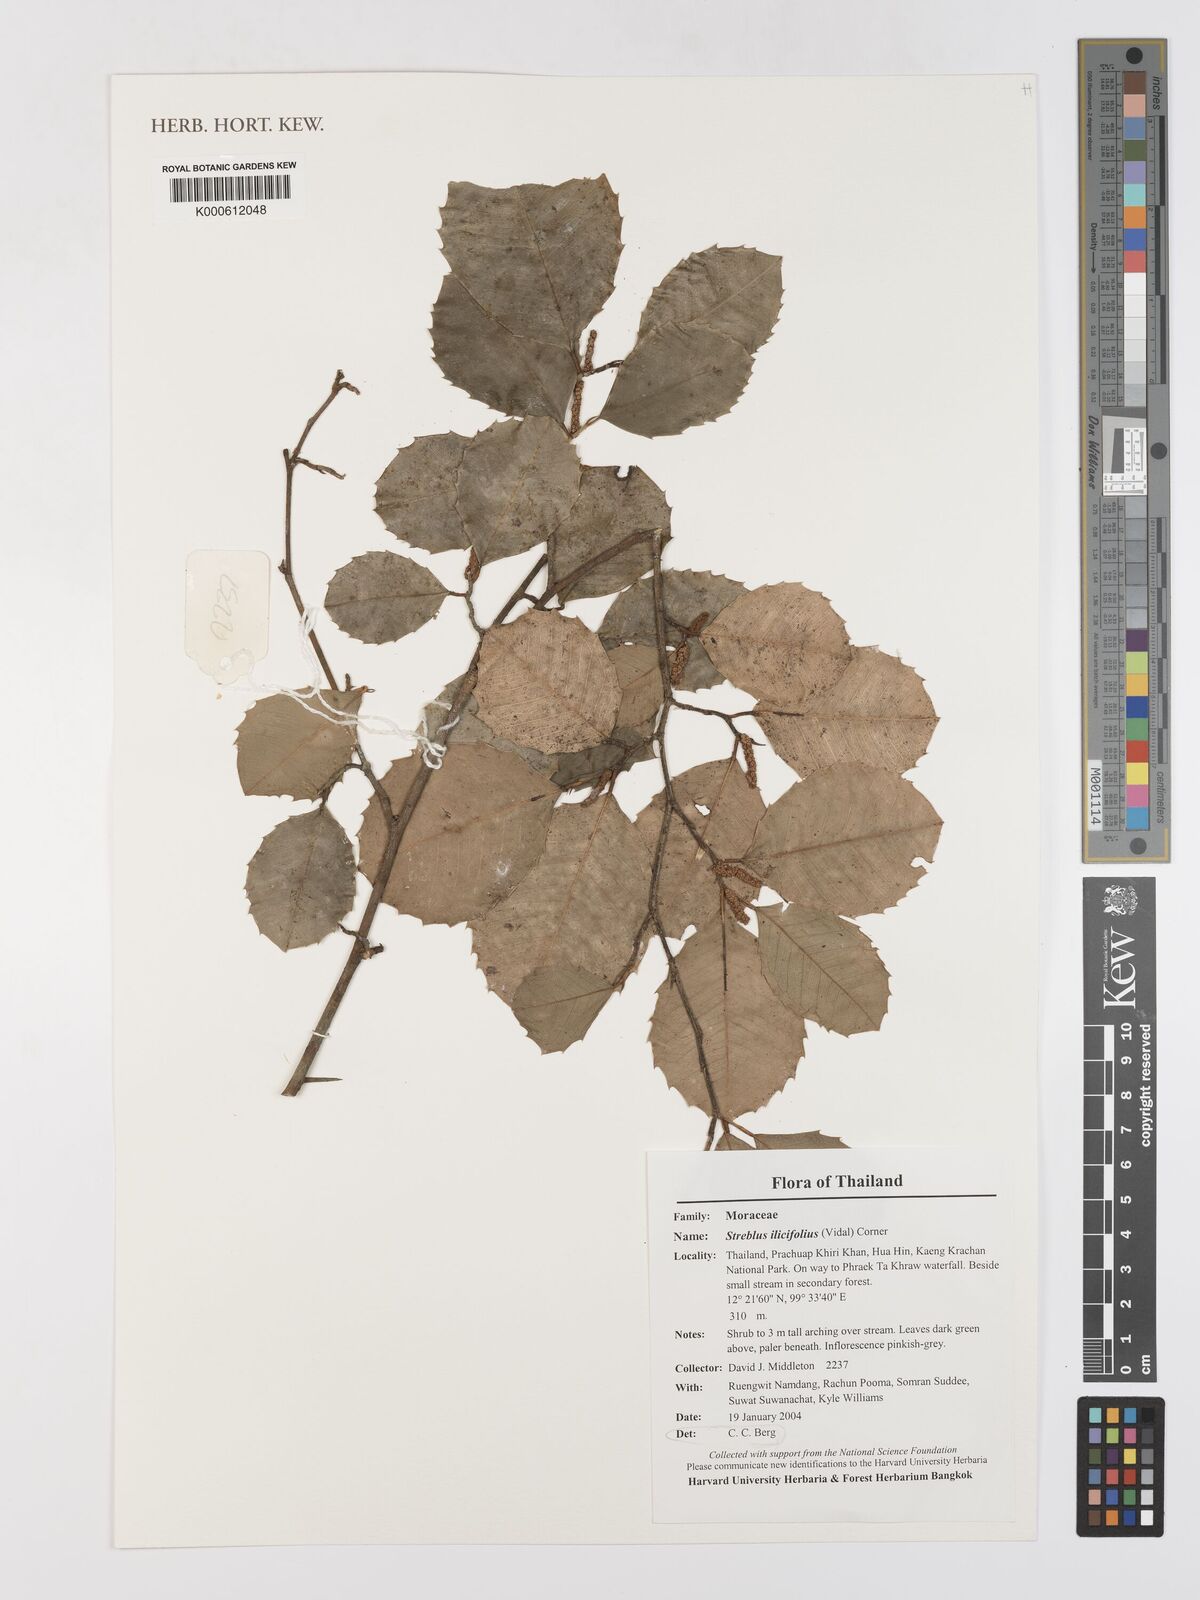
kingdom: Plantae
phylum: Tracheophyta
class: Magnoliopsida
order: Rosales
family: Moraceae
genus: Taxotrophis
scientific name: Taxotrophis ilicifolia
